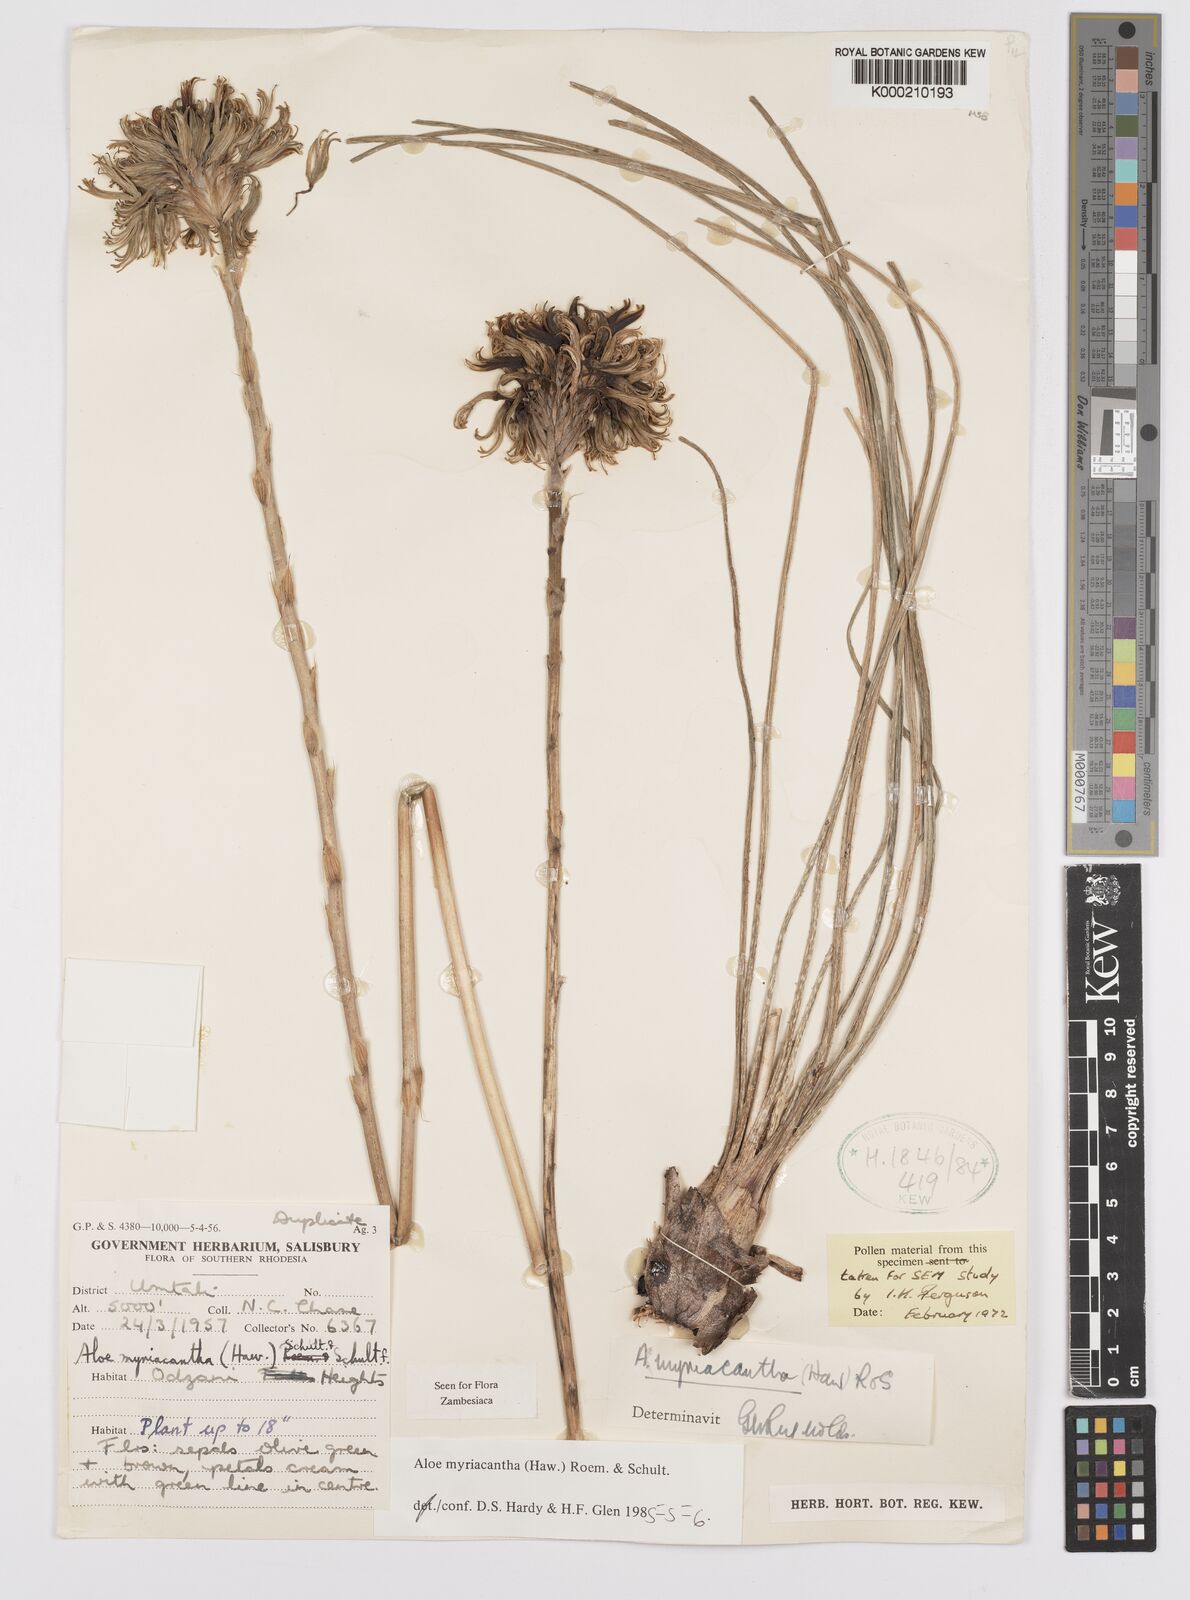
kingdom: Plantae
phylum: Tracheophyta
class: Liliopsida
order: Asparagales
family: Asphodelaceae
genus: Aloe
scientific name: Aloe
